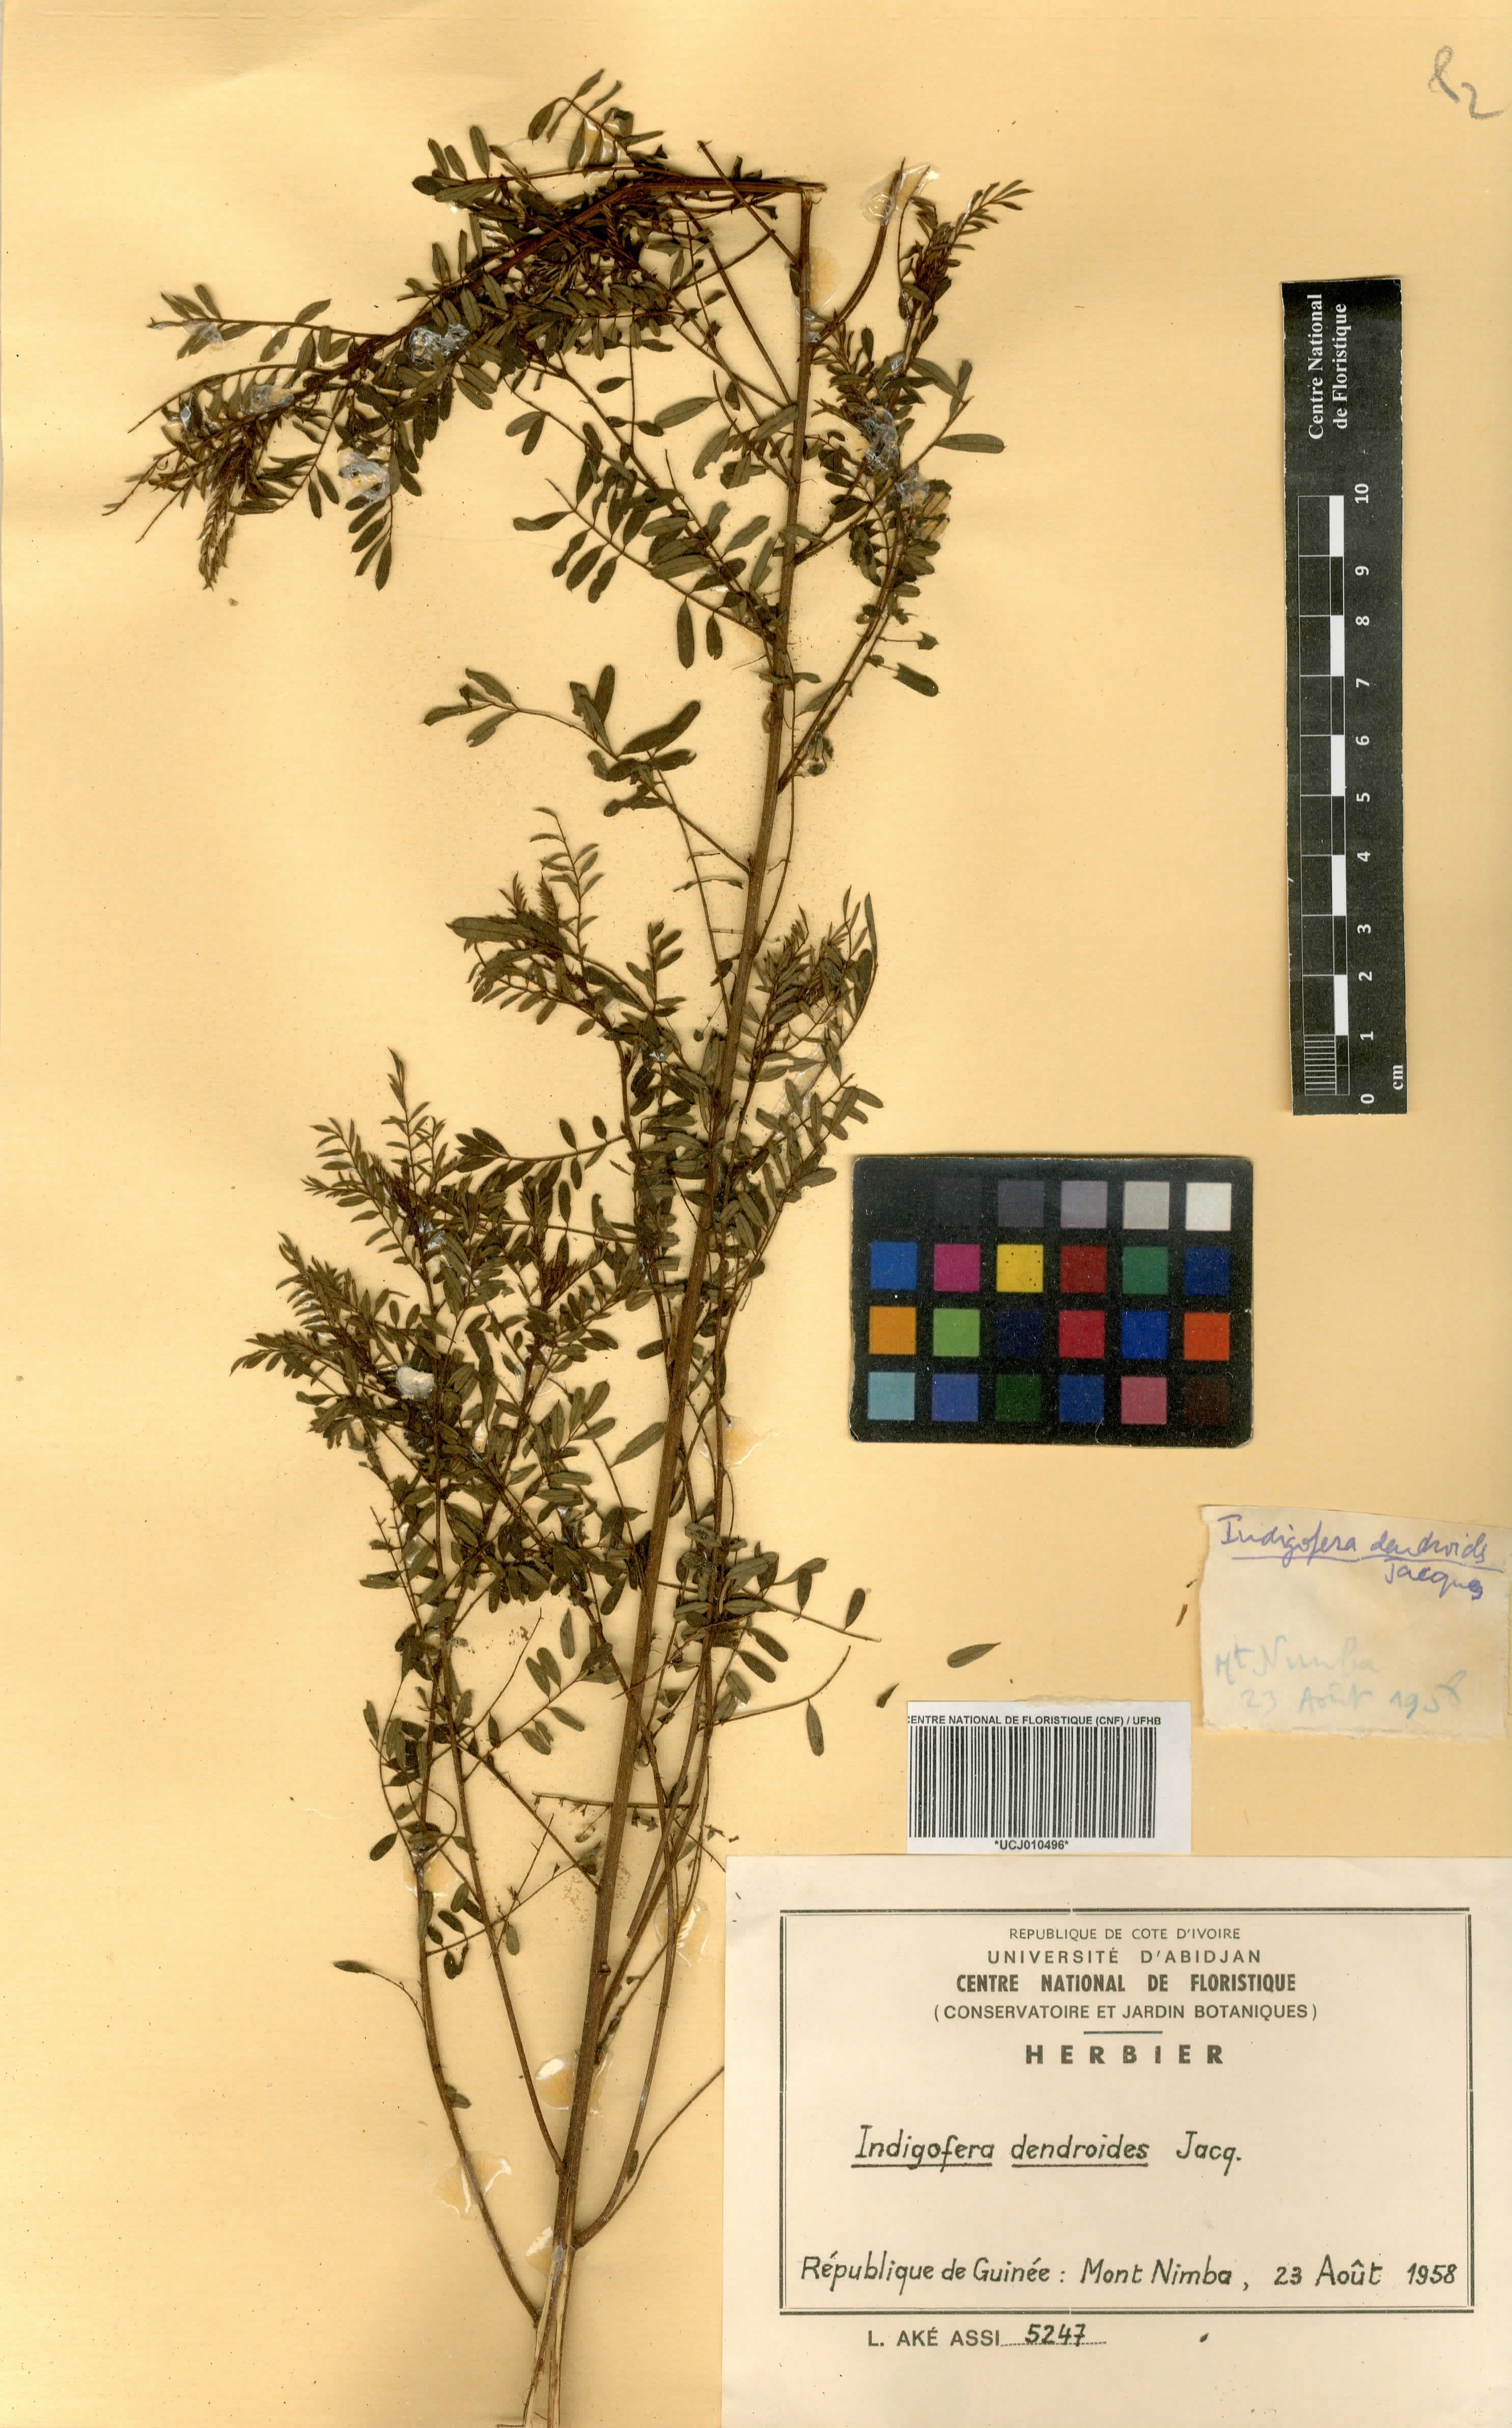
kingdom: Plantae
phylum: Tracheophyta
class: Magnoliopsida
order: Fabales
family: Fabaceae
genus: Indigofera
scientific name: Indigofera dendroides
